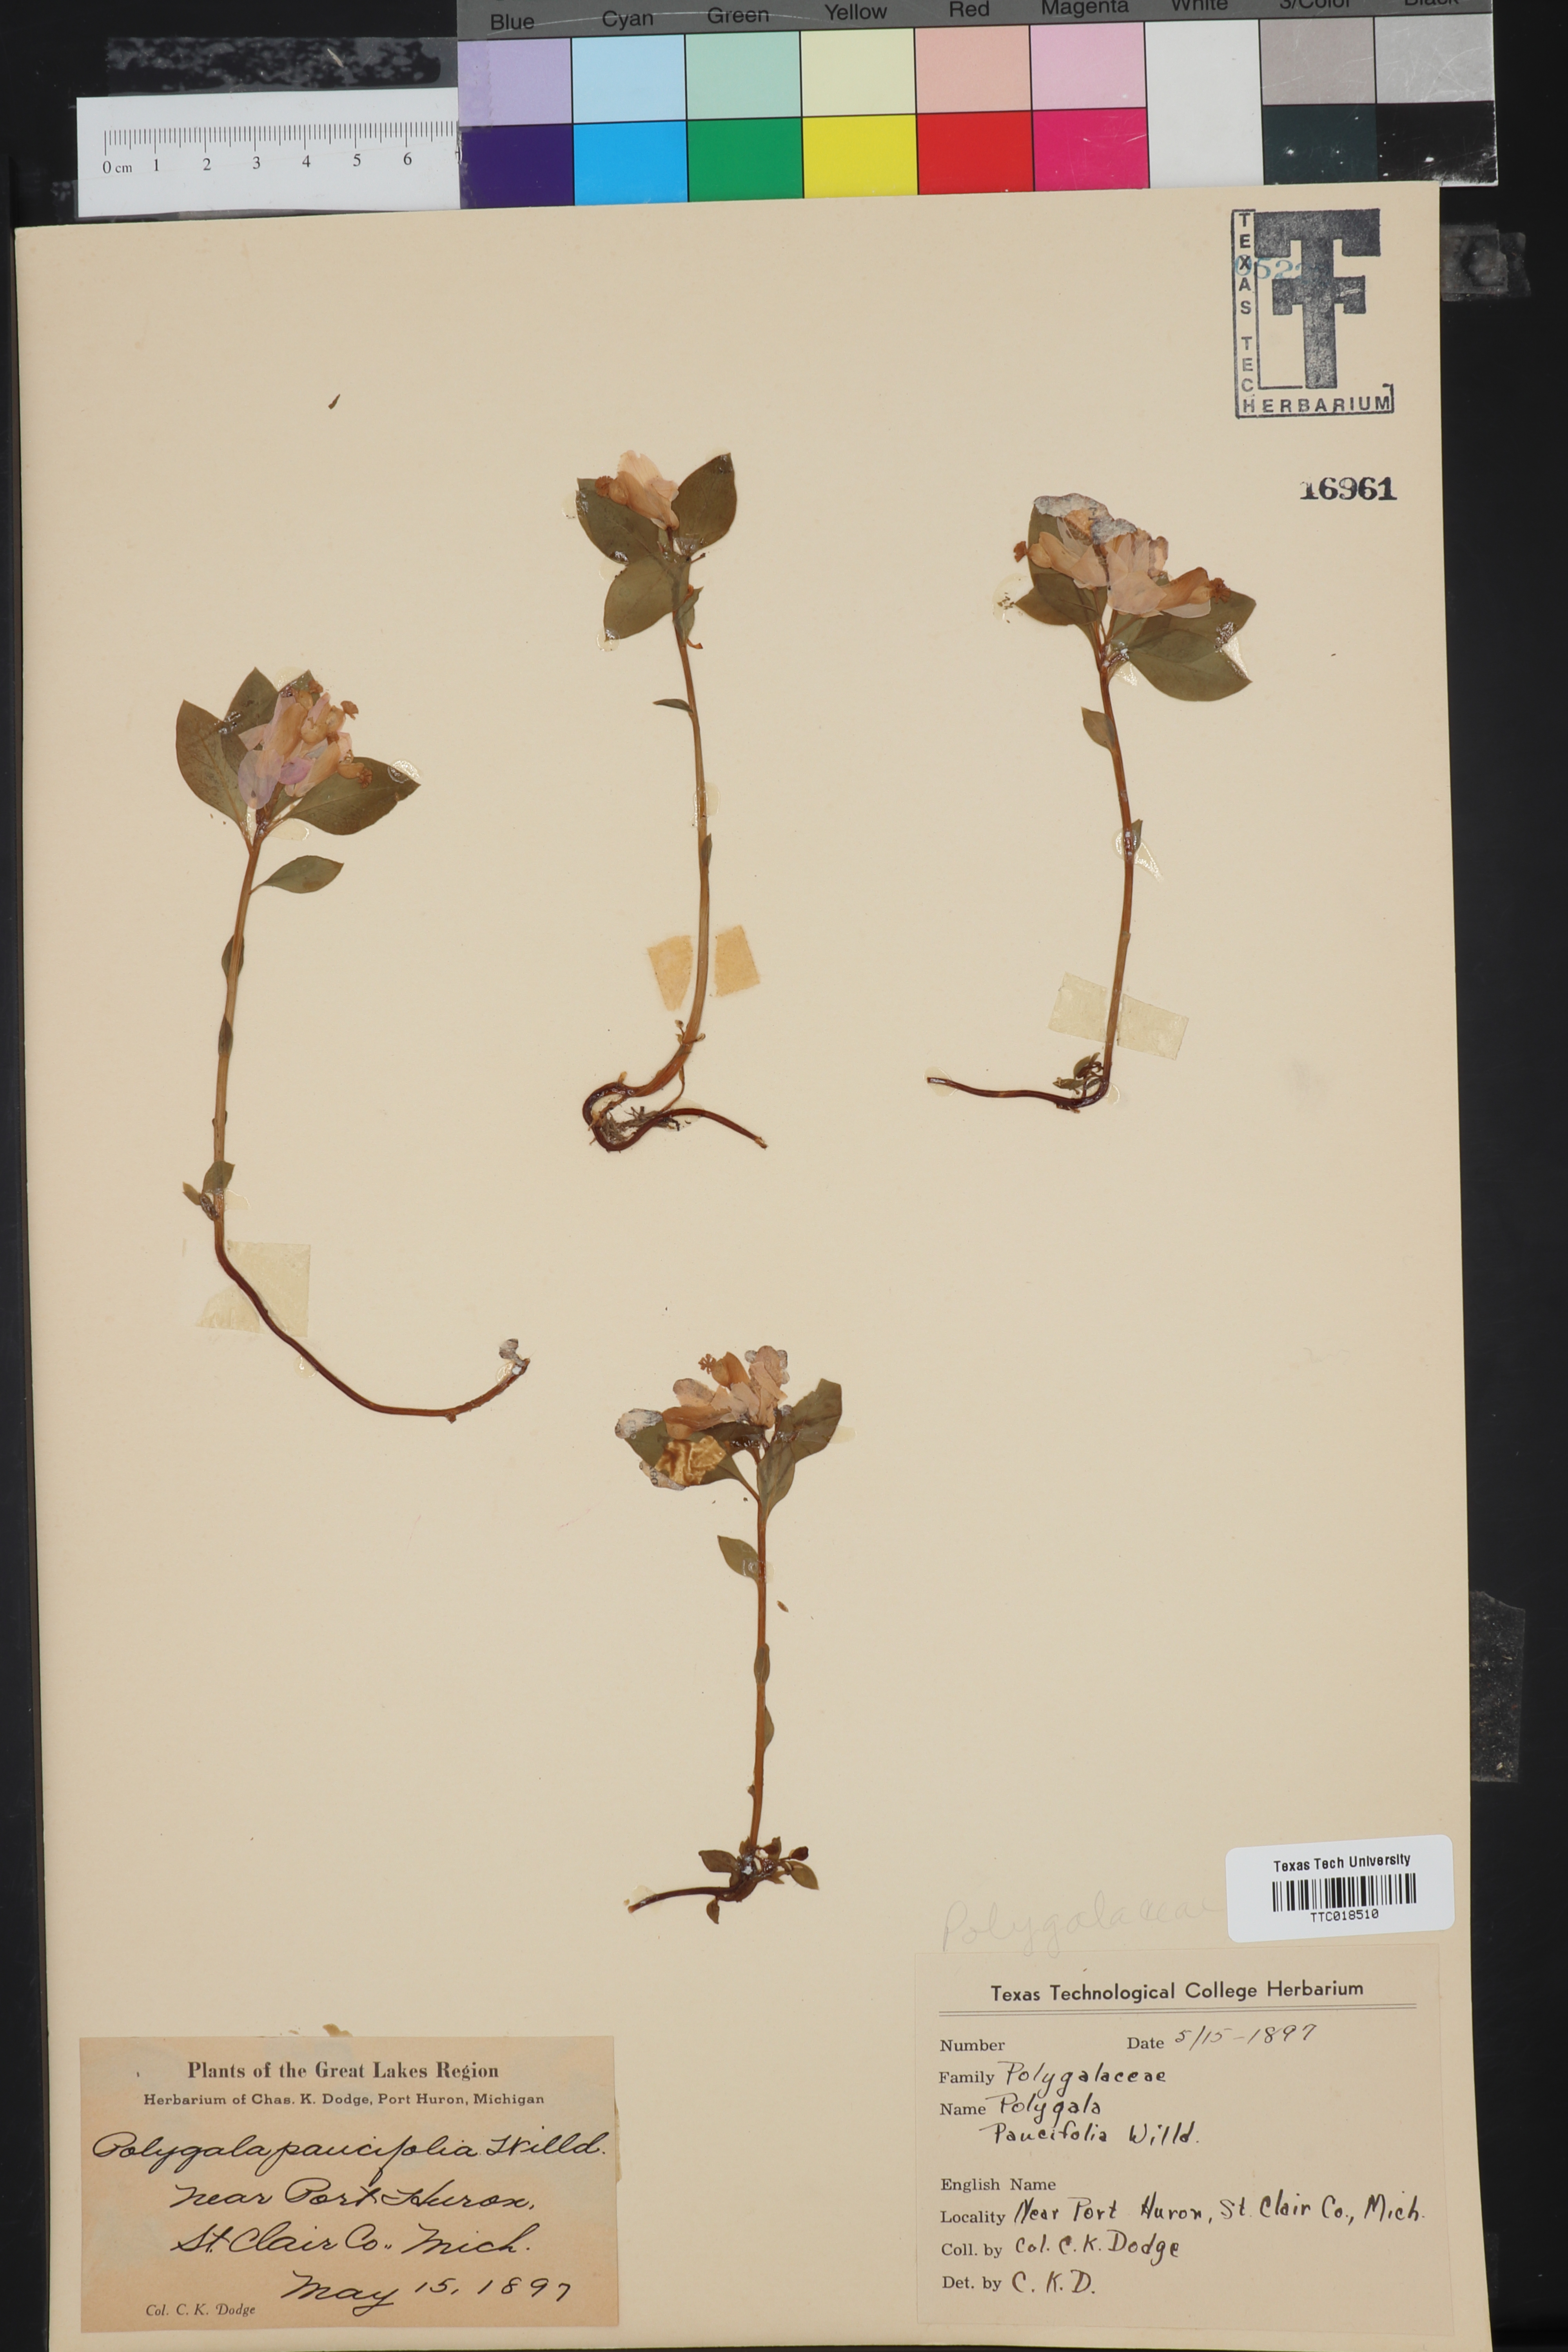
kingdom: Plantae
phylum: Tracheophyta
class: Magnoliopsida
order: Fabales
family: Polygalaceae
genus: Muraltia
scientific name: Muraltia pauciflora
